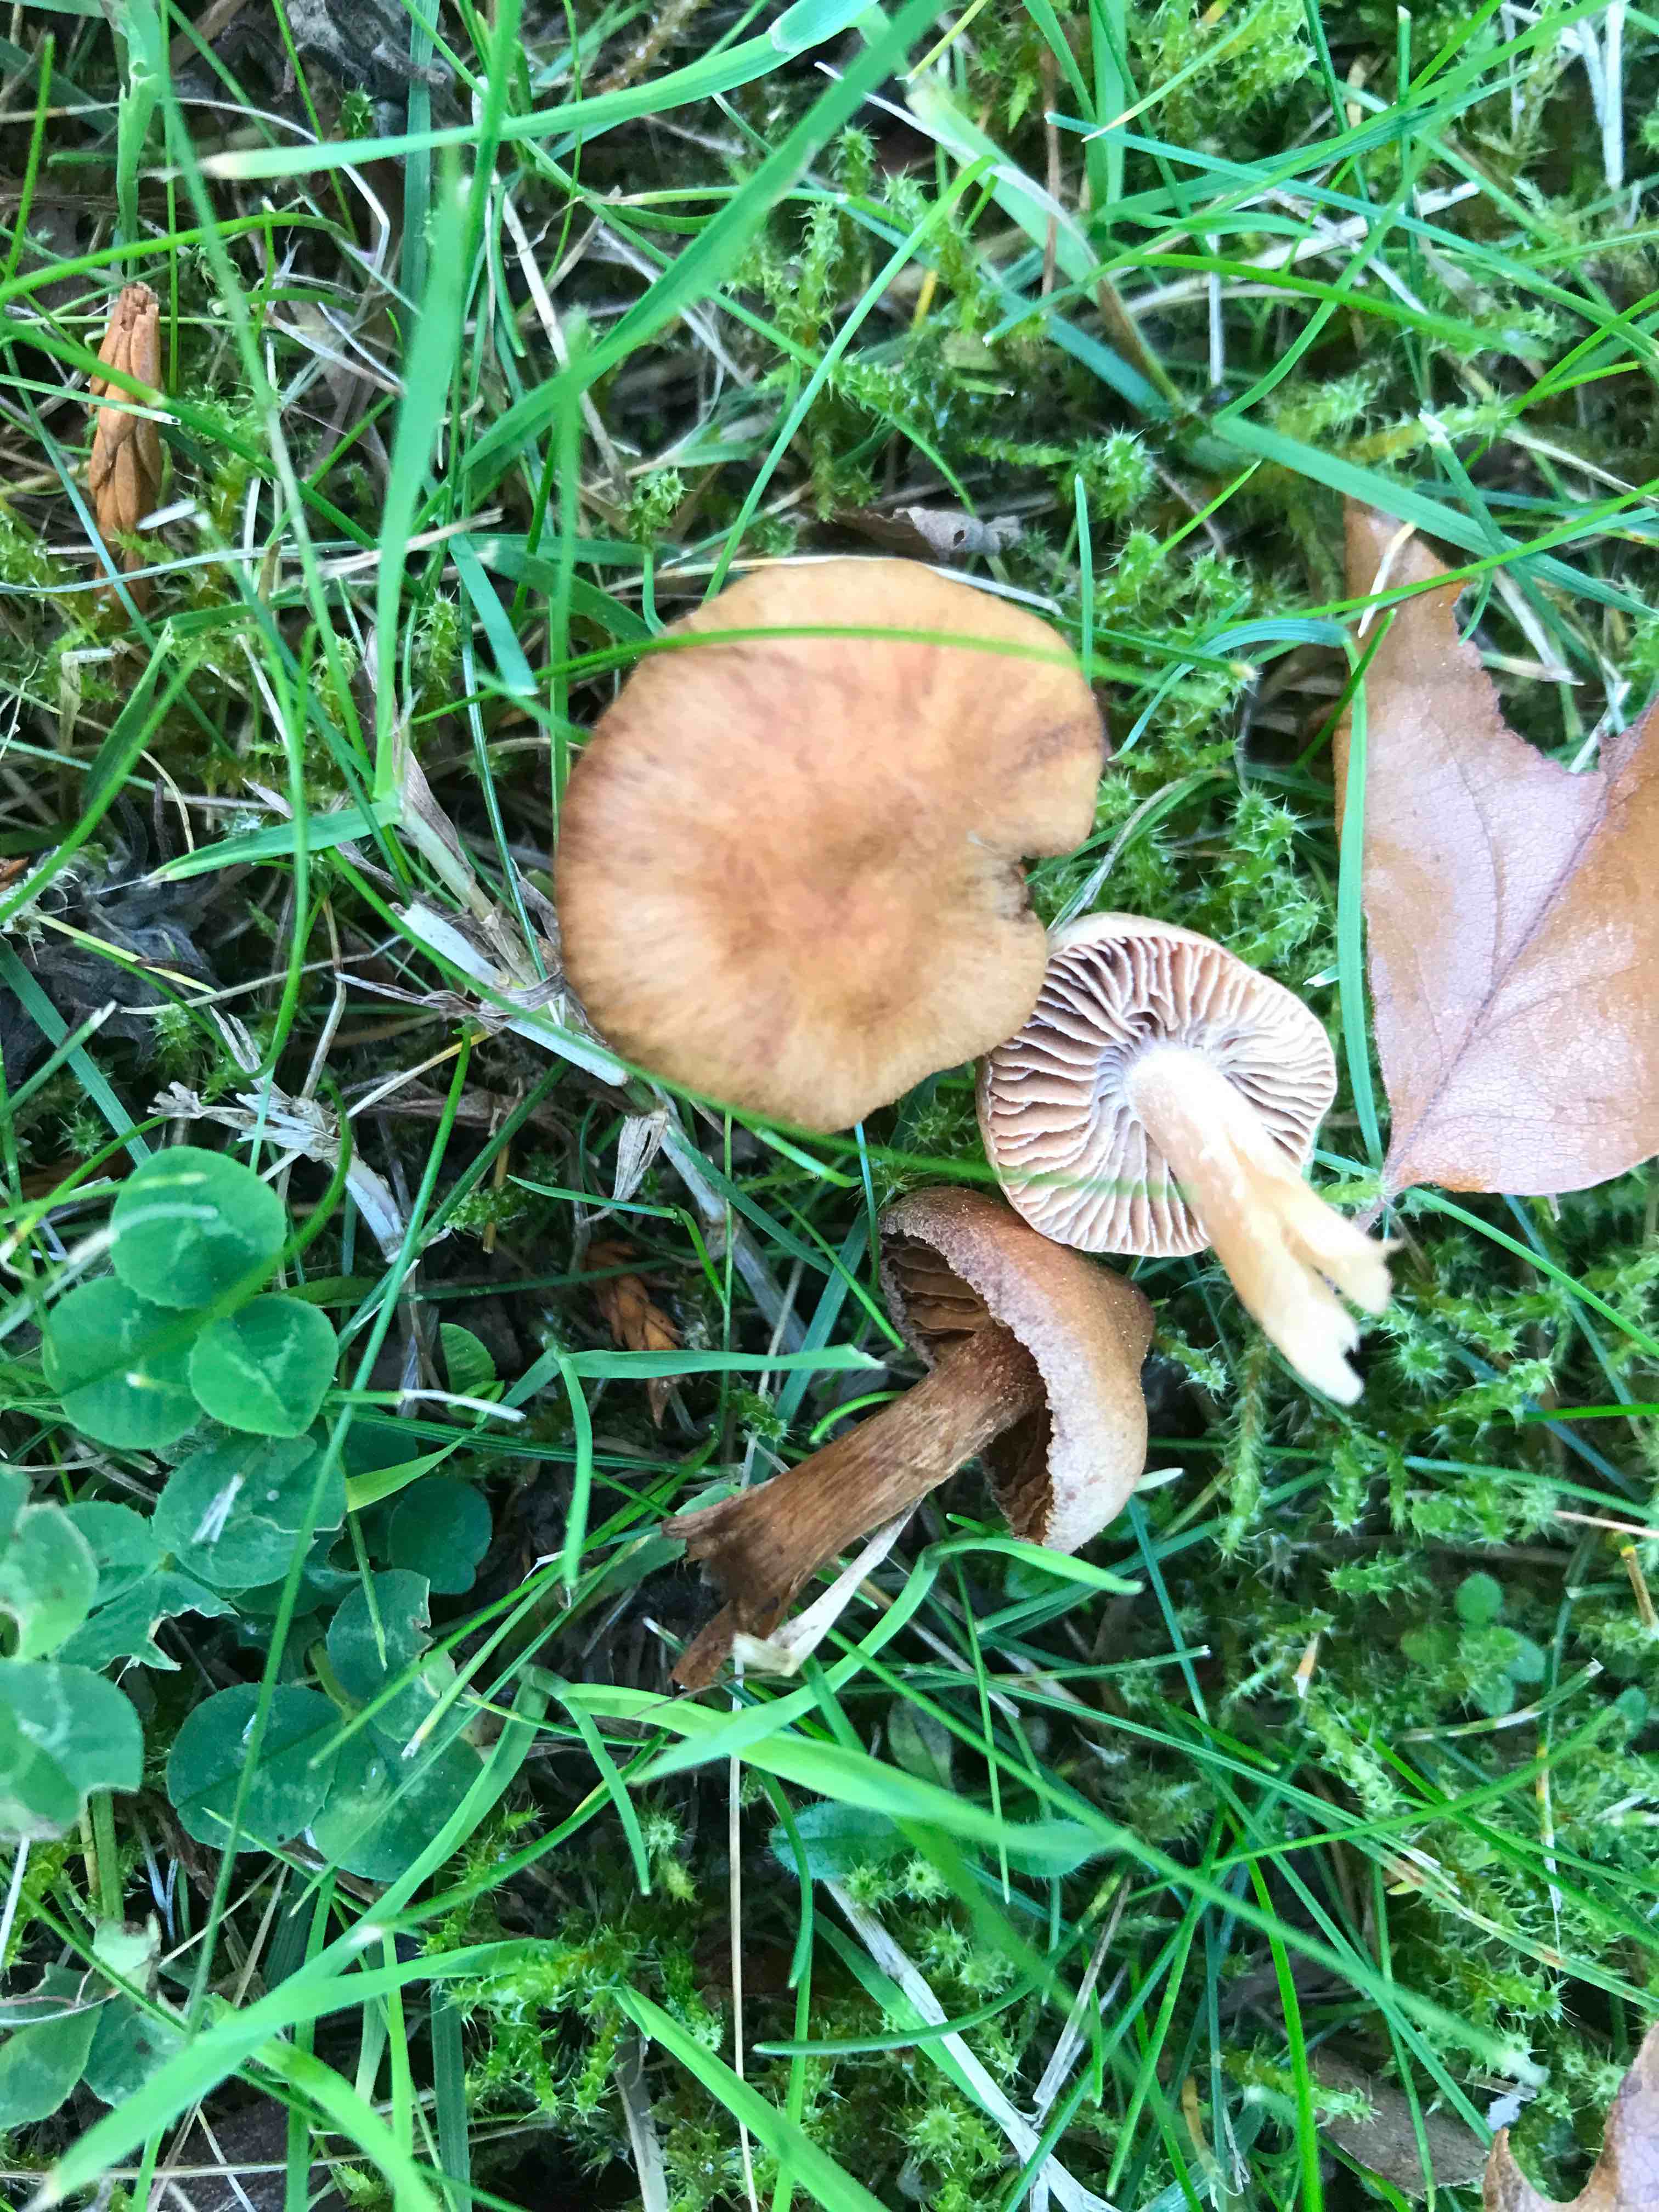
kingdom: Fungi
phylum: Basidiomycota
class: Agaricomycetes
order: Agaricales
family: Cortinariaceae
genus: Cortinarius
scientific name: Cortinarius
